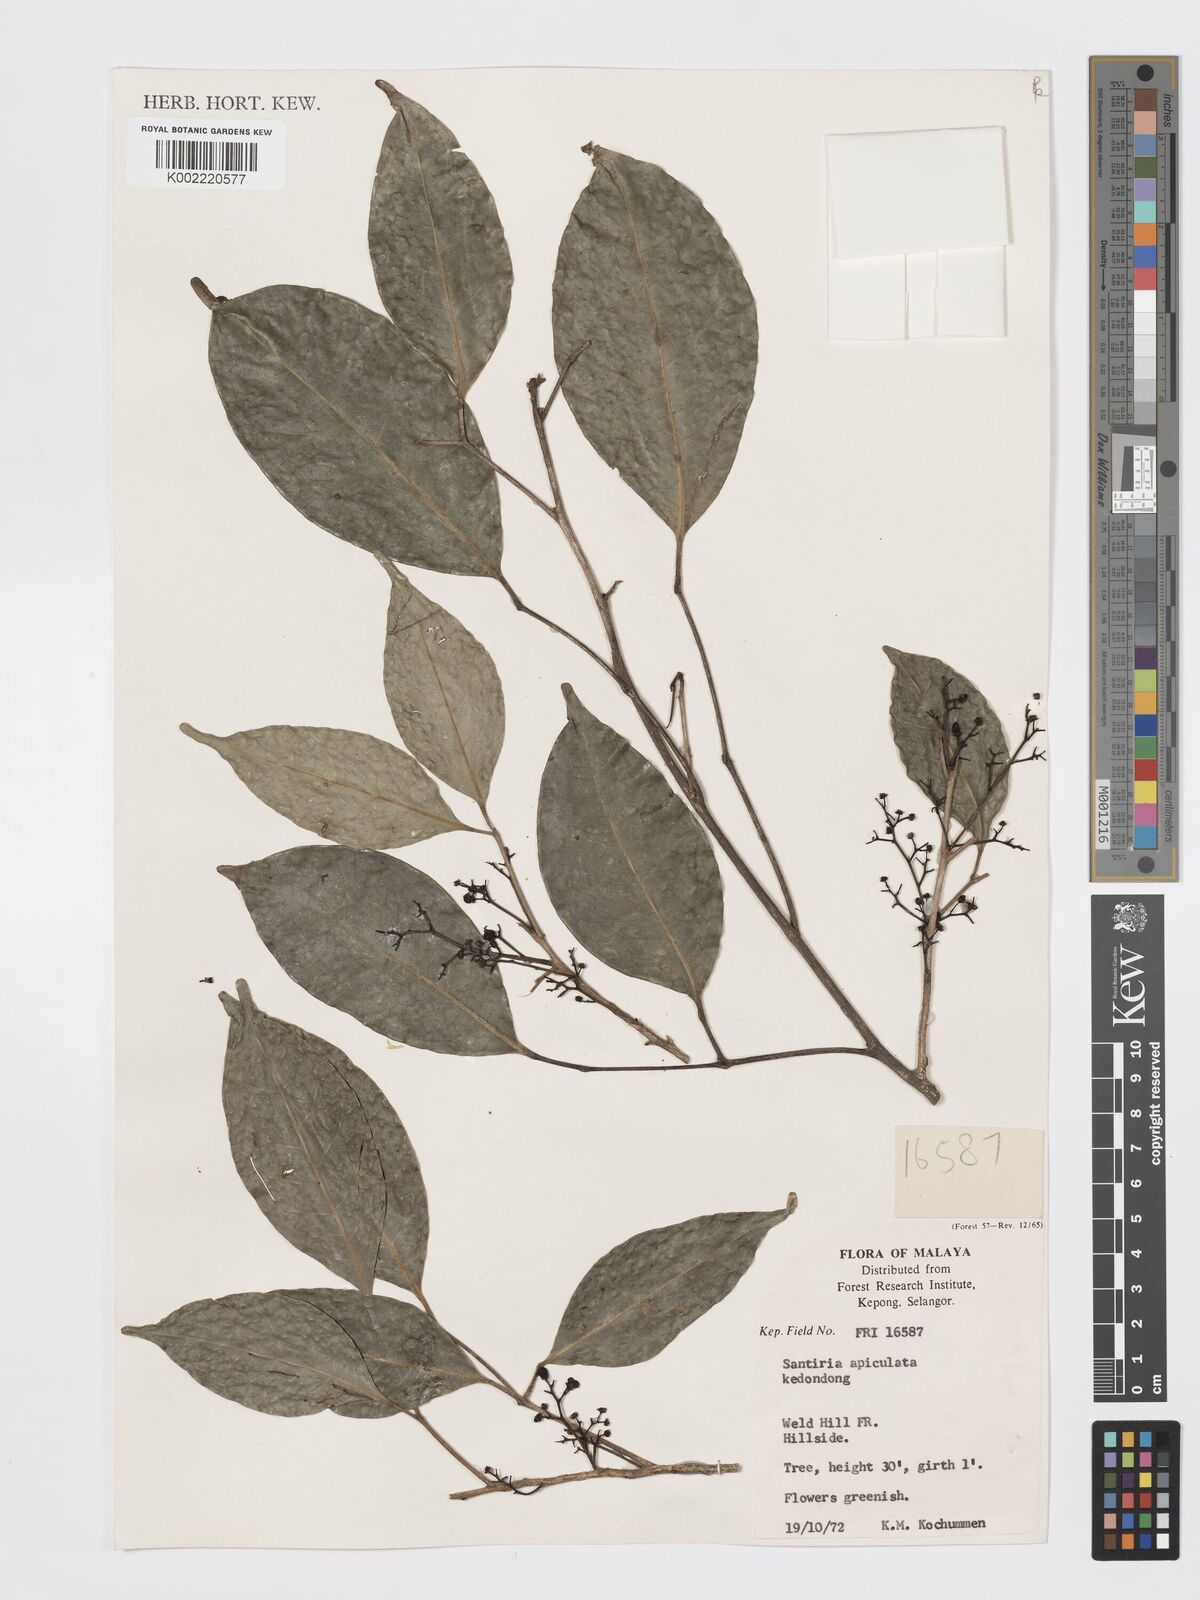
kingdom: Plantae
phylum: Tracheophyta
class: Magnoliopsida
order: Sapindales
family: Burseraceae
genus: Santiria
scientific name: Santiria apiculata
